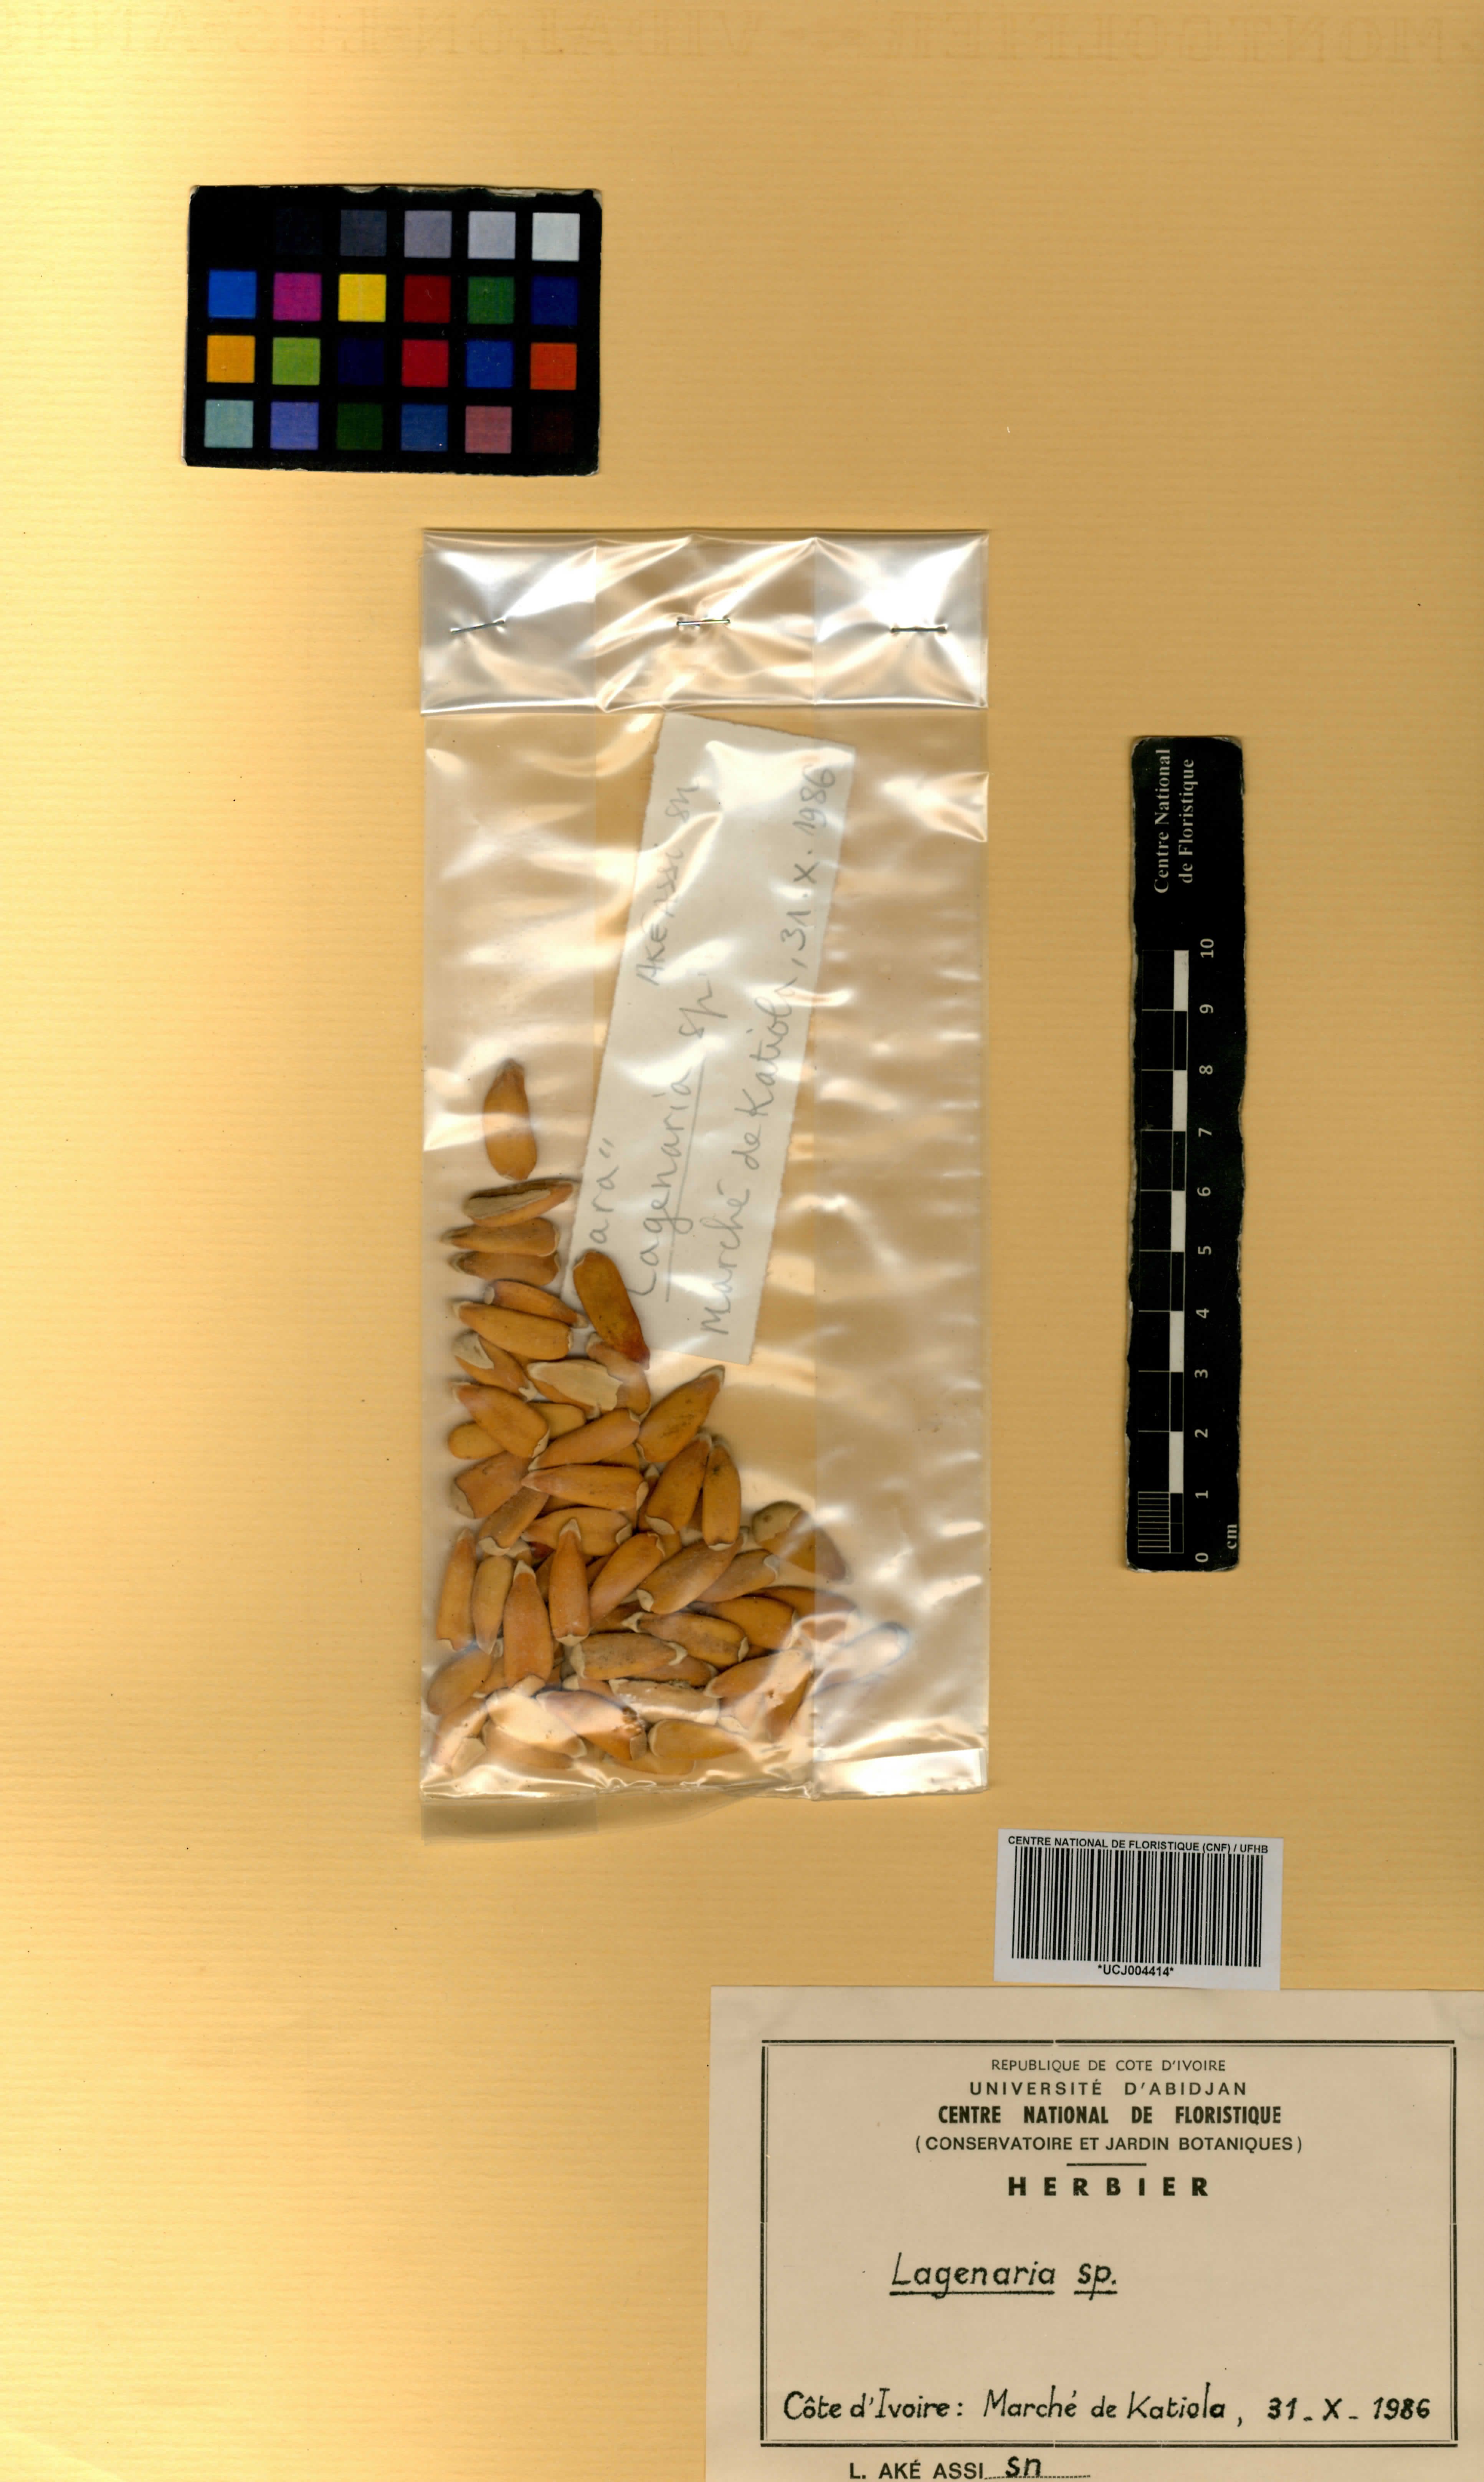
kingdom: Plantae
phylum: Tracheophyta
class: Magnoliopsida
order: Cucurbitales
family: Cucurbitaceae
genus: Lagenaria
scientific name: Lagenaria
